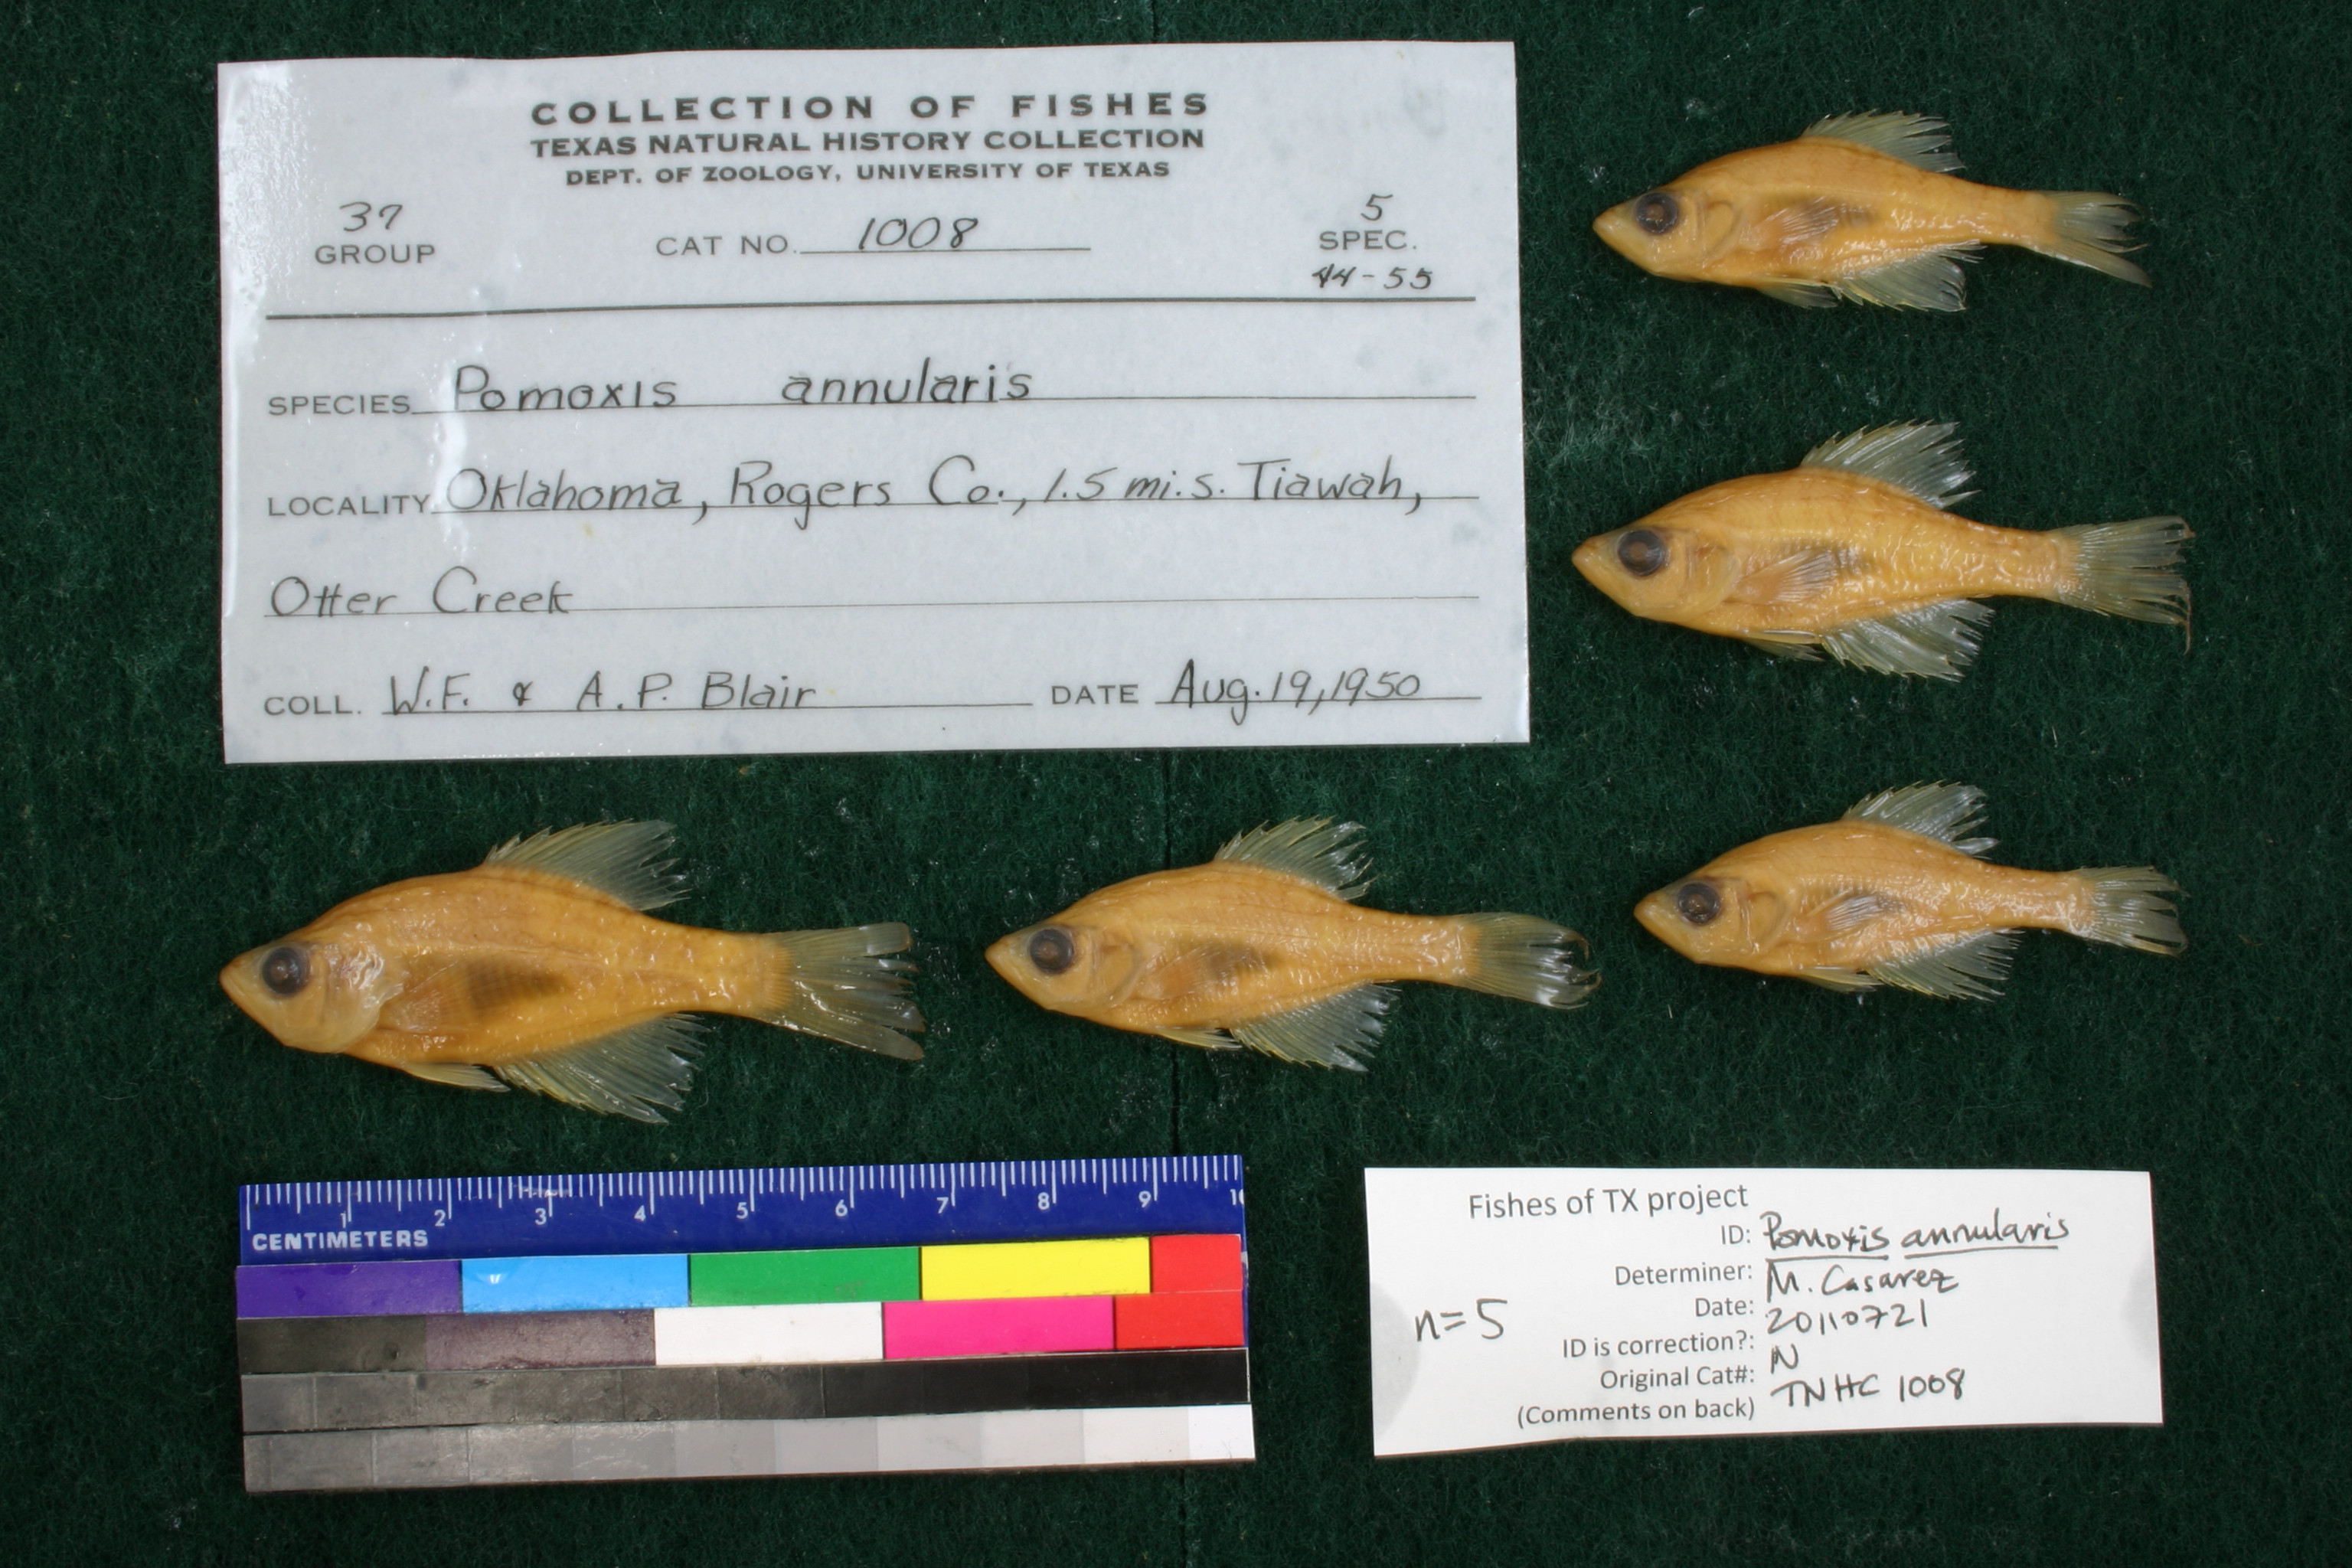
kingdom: Animalia
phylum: Chordata
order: Perciformes
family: Centrarchidae
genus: Pomoxis
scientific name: Pomoxis annularis
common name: White crappie
